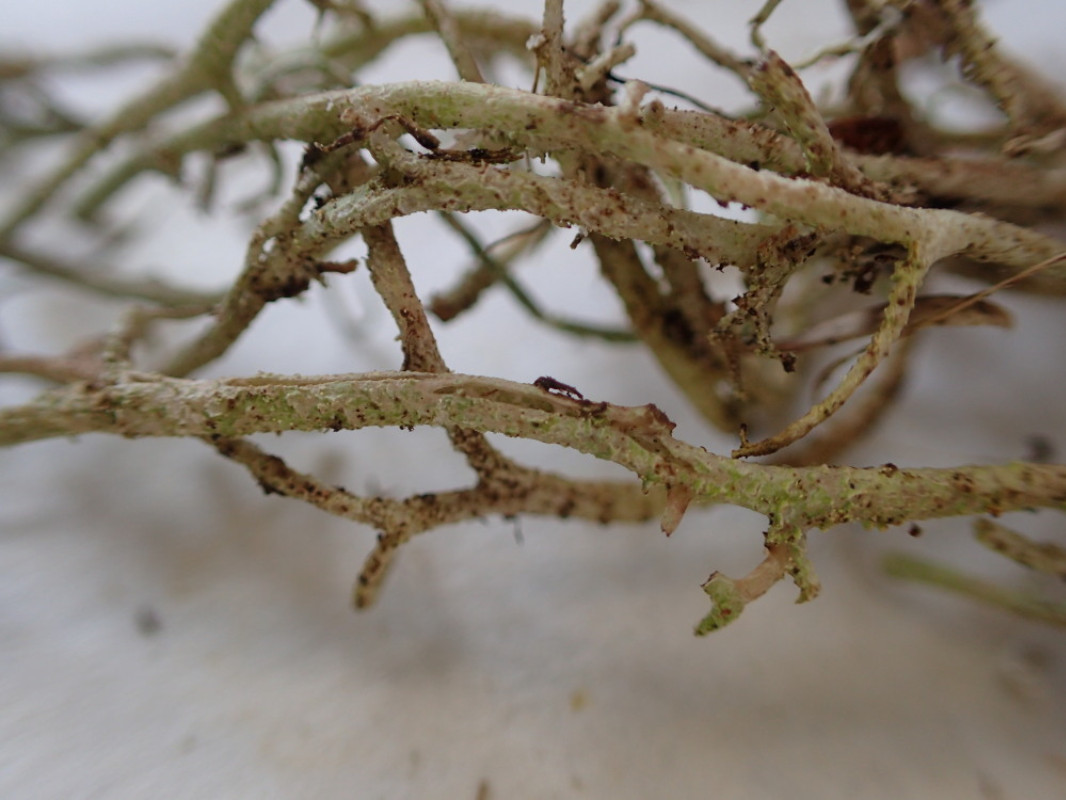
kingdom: Fungi
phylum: Ascomycota
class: Lecanoromycetes
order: Lecanorales
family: Cladoniaceae
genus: Cladonia
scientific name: Cladonia furcata
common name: kløftet bægerlav
